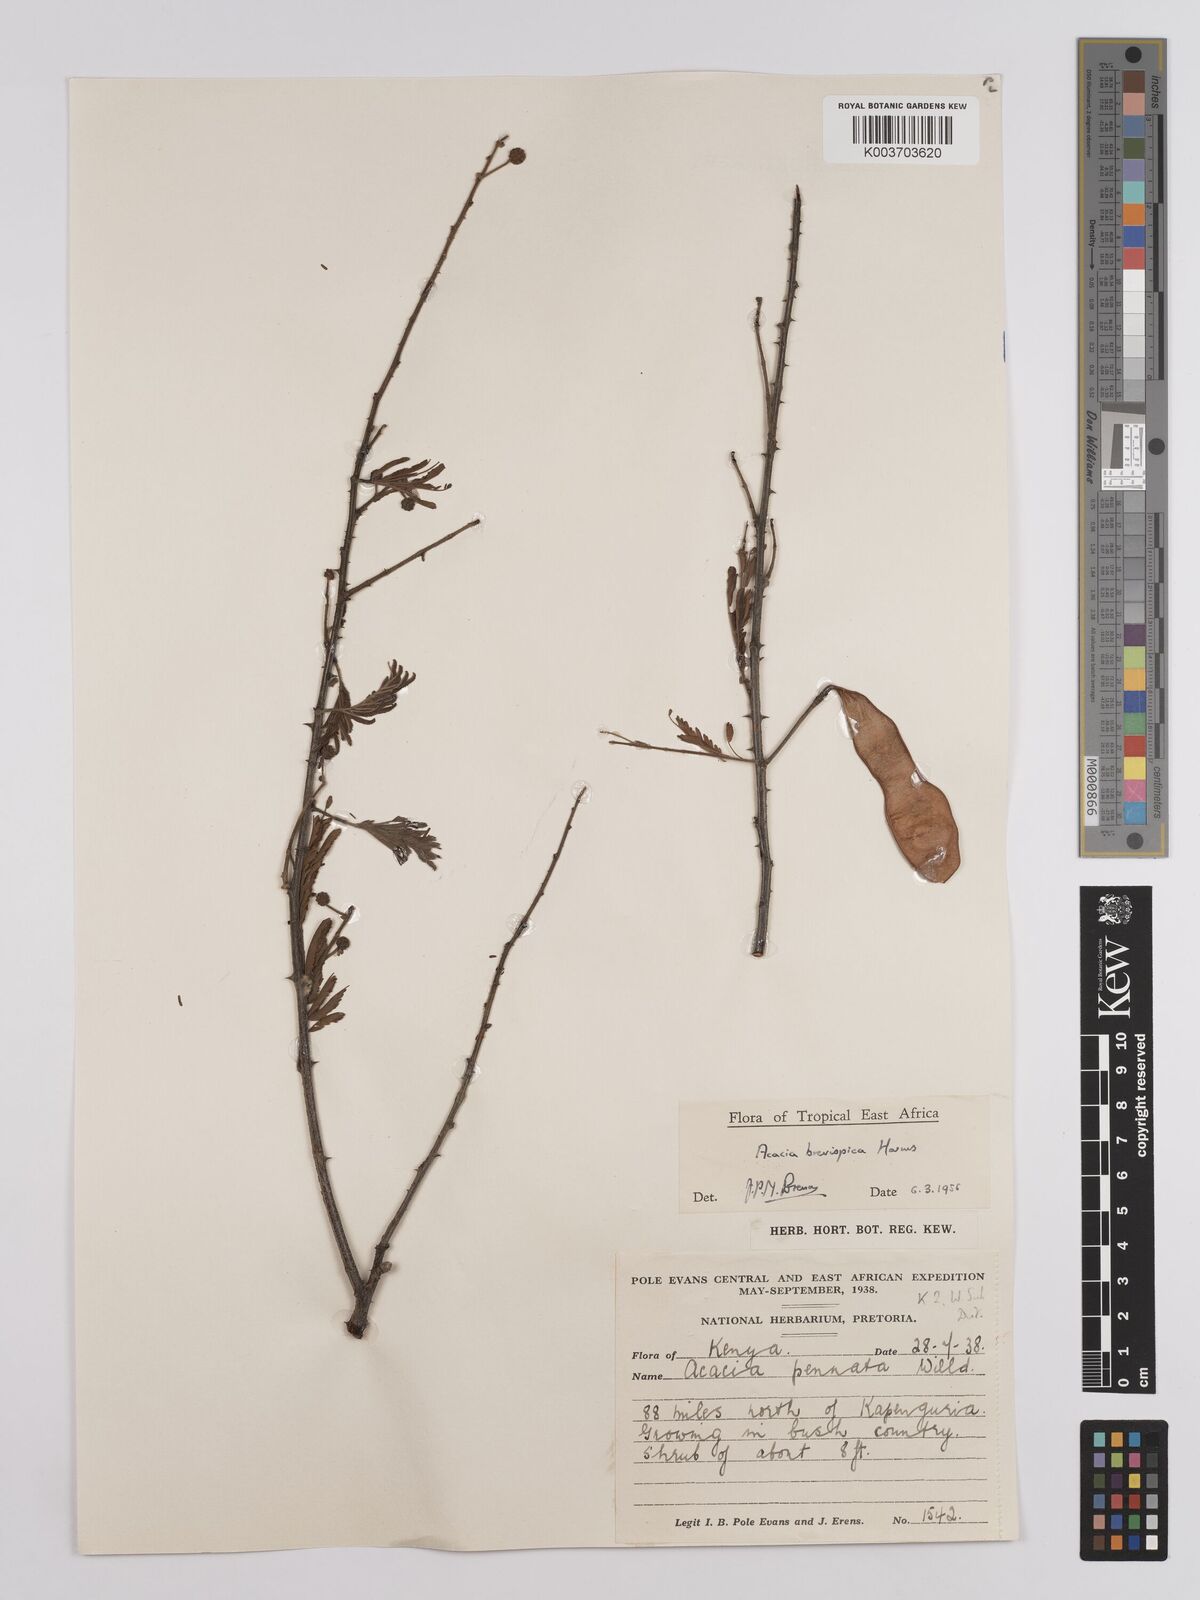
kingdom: Plantae
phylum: Tracheophyta
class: Magnoliopsida
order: Fabales
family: Fabaceae
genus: Senegalia
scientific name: Senegalia brevispica
